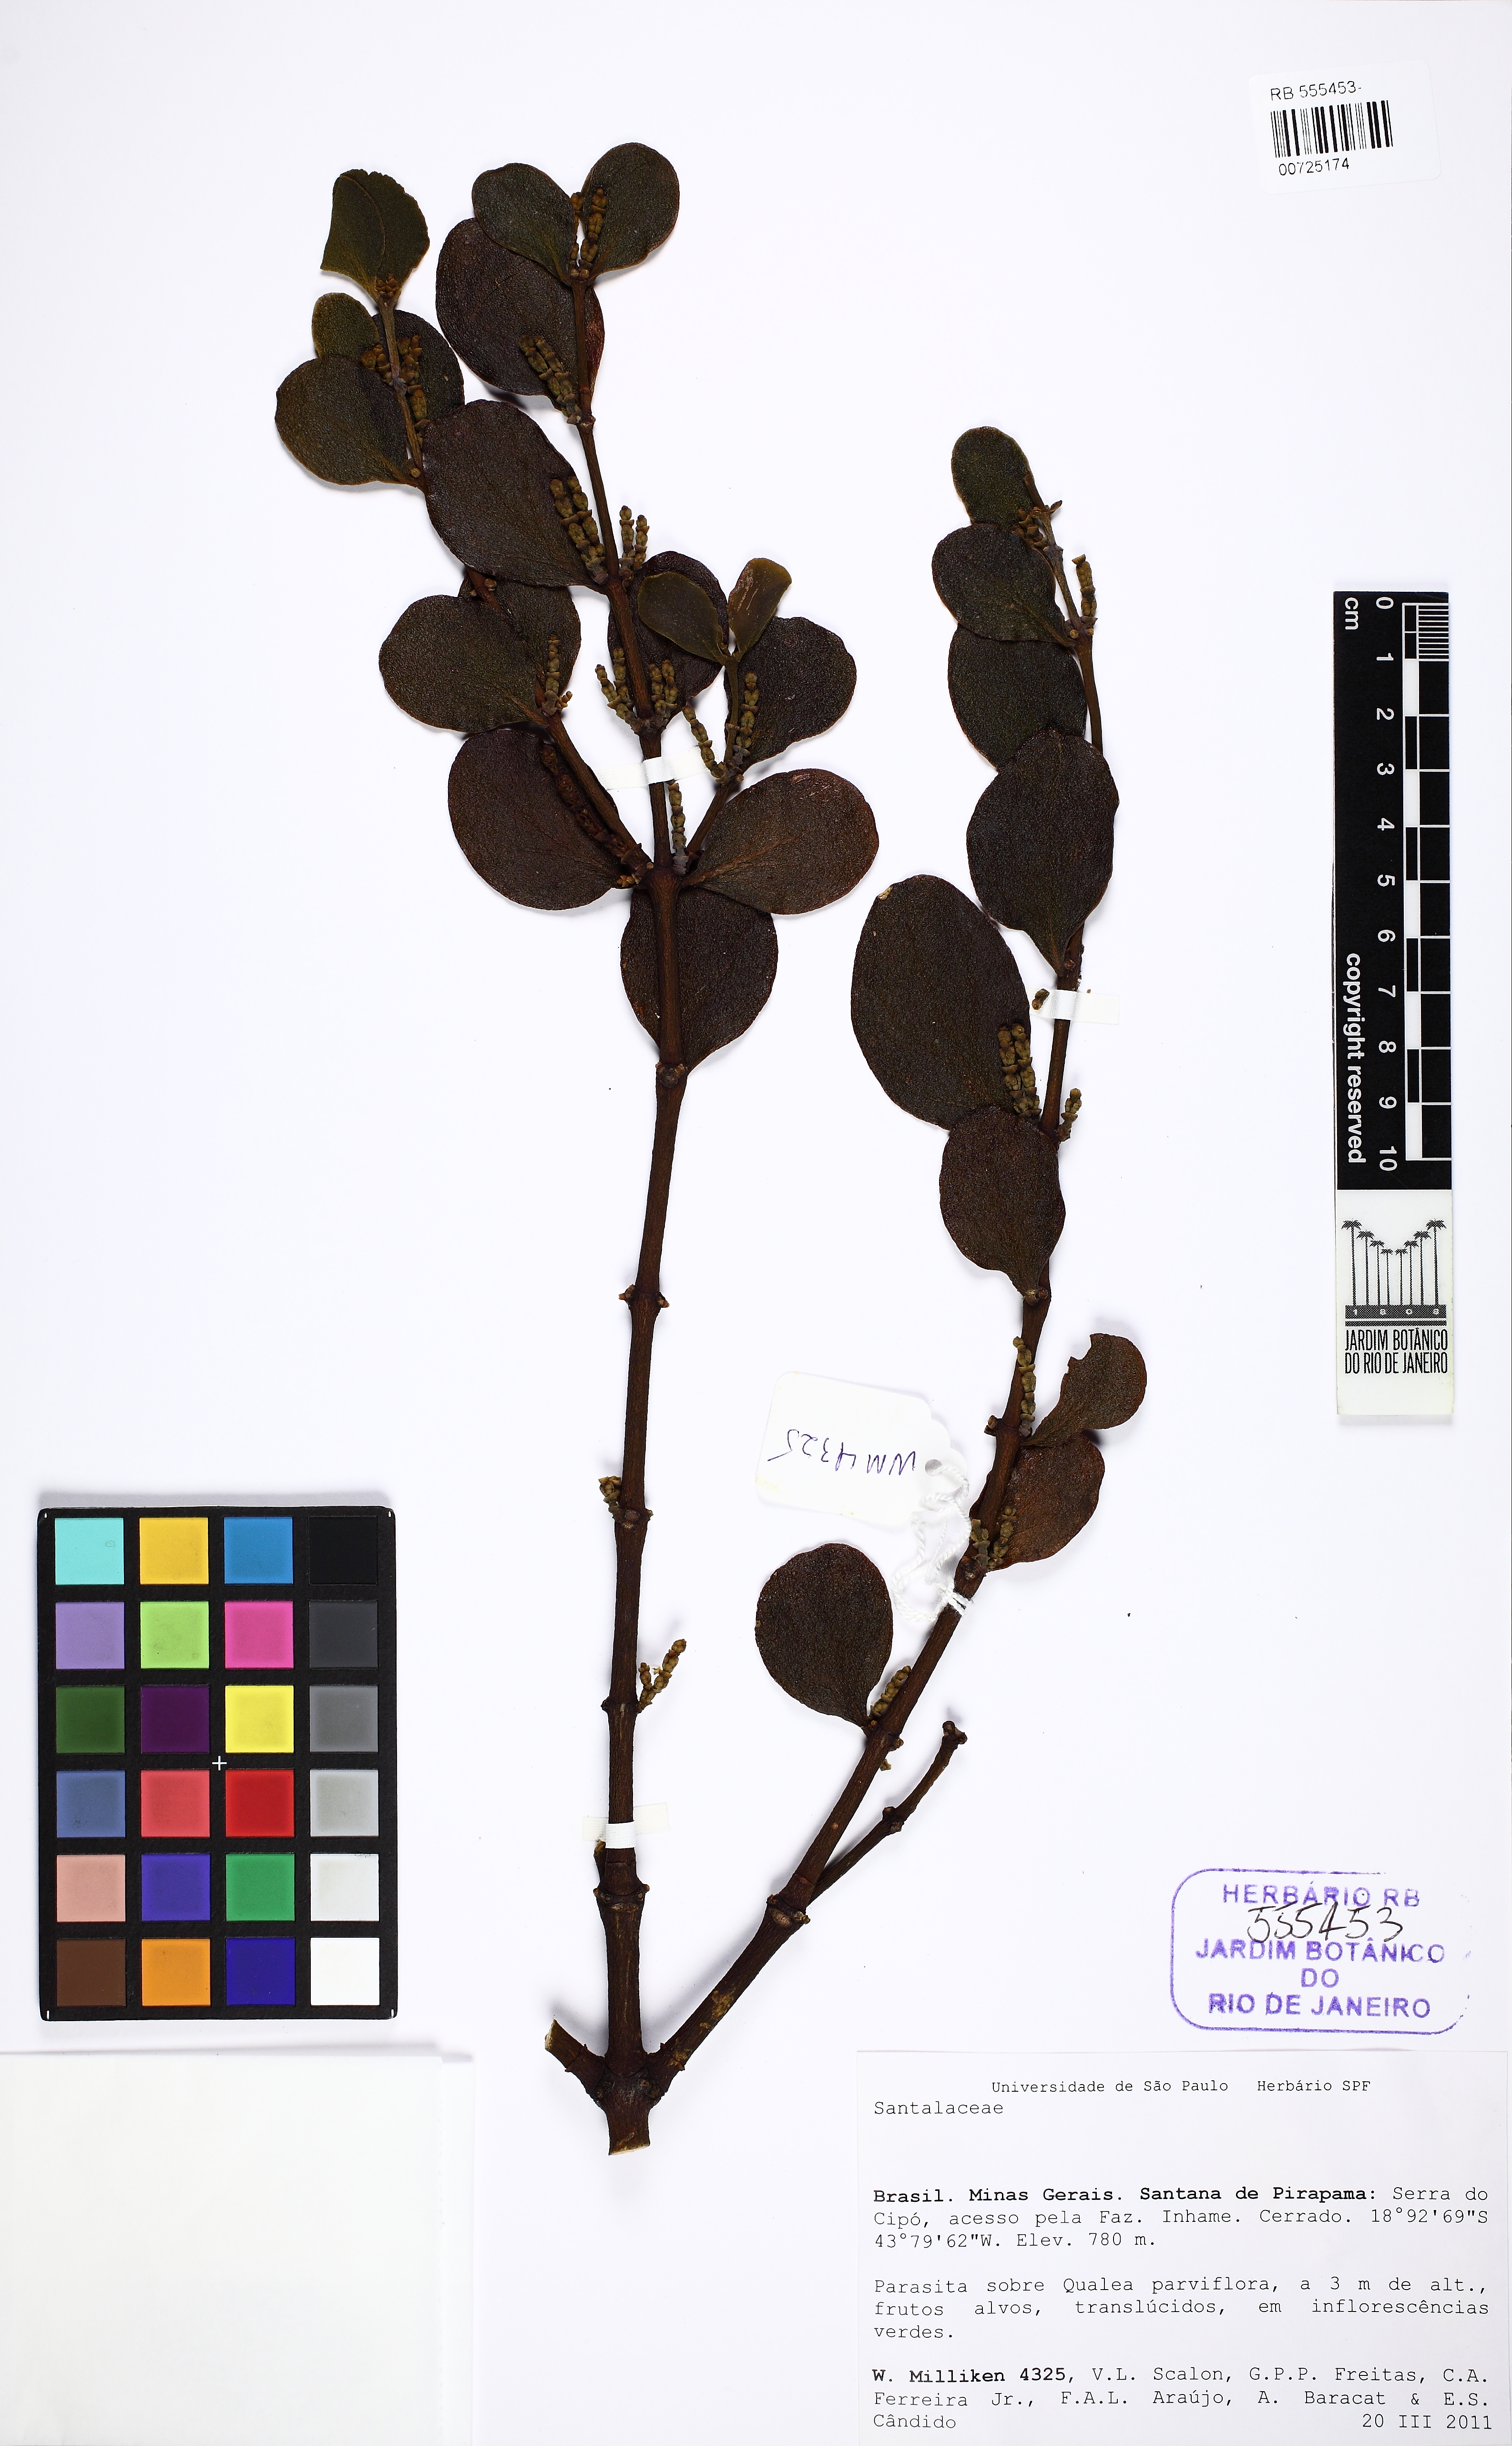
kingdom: Plantae
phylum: Tracheophyta
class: Magnoliopsida
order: Santalales
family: Santalaceae
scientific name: Santalaceae
